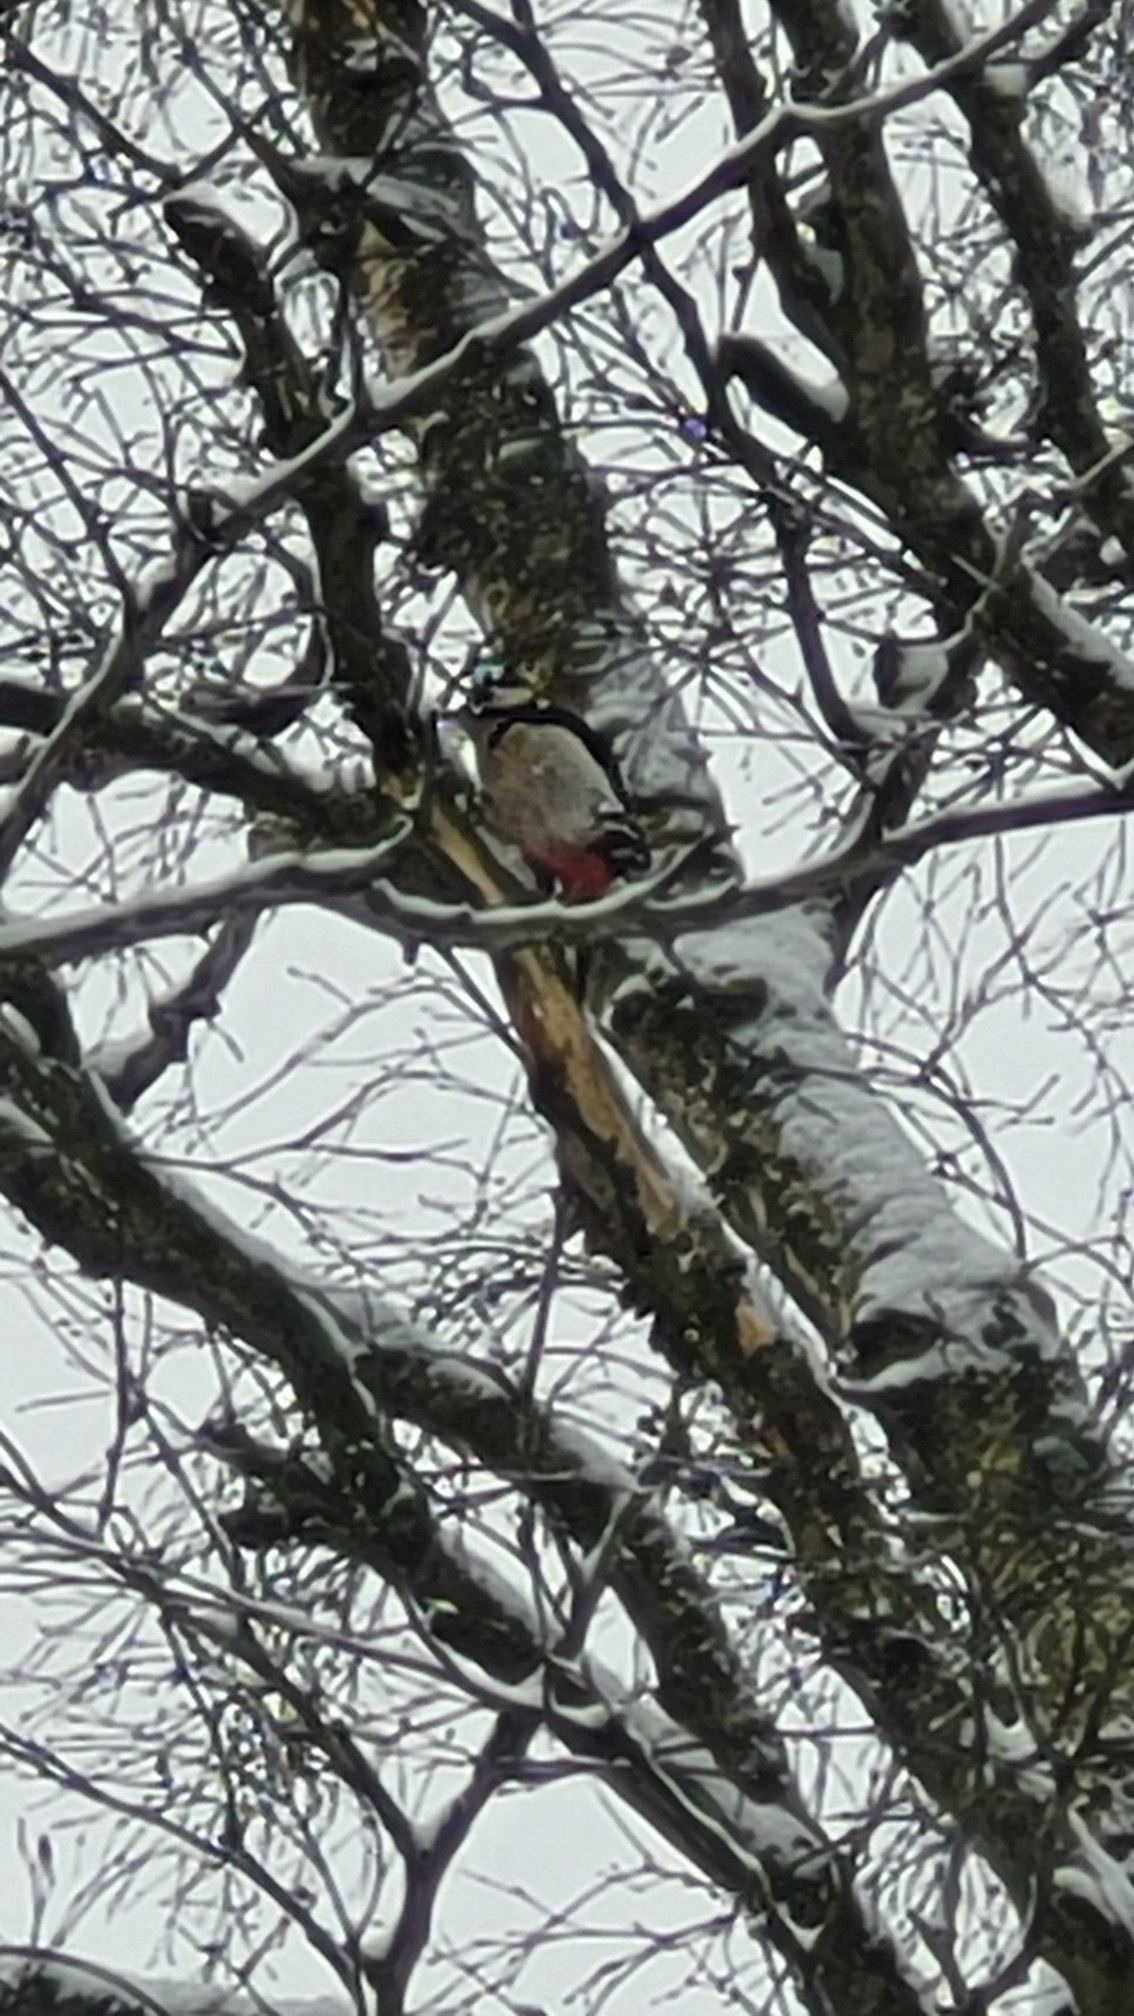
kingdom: Animalia
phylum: Chordata
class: Aves
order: Piciformes
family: Picidae
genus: Dendrocopos
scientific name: Dendrocopos major
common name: Stor flagspætte
